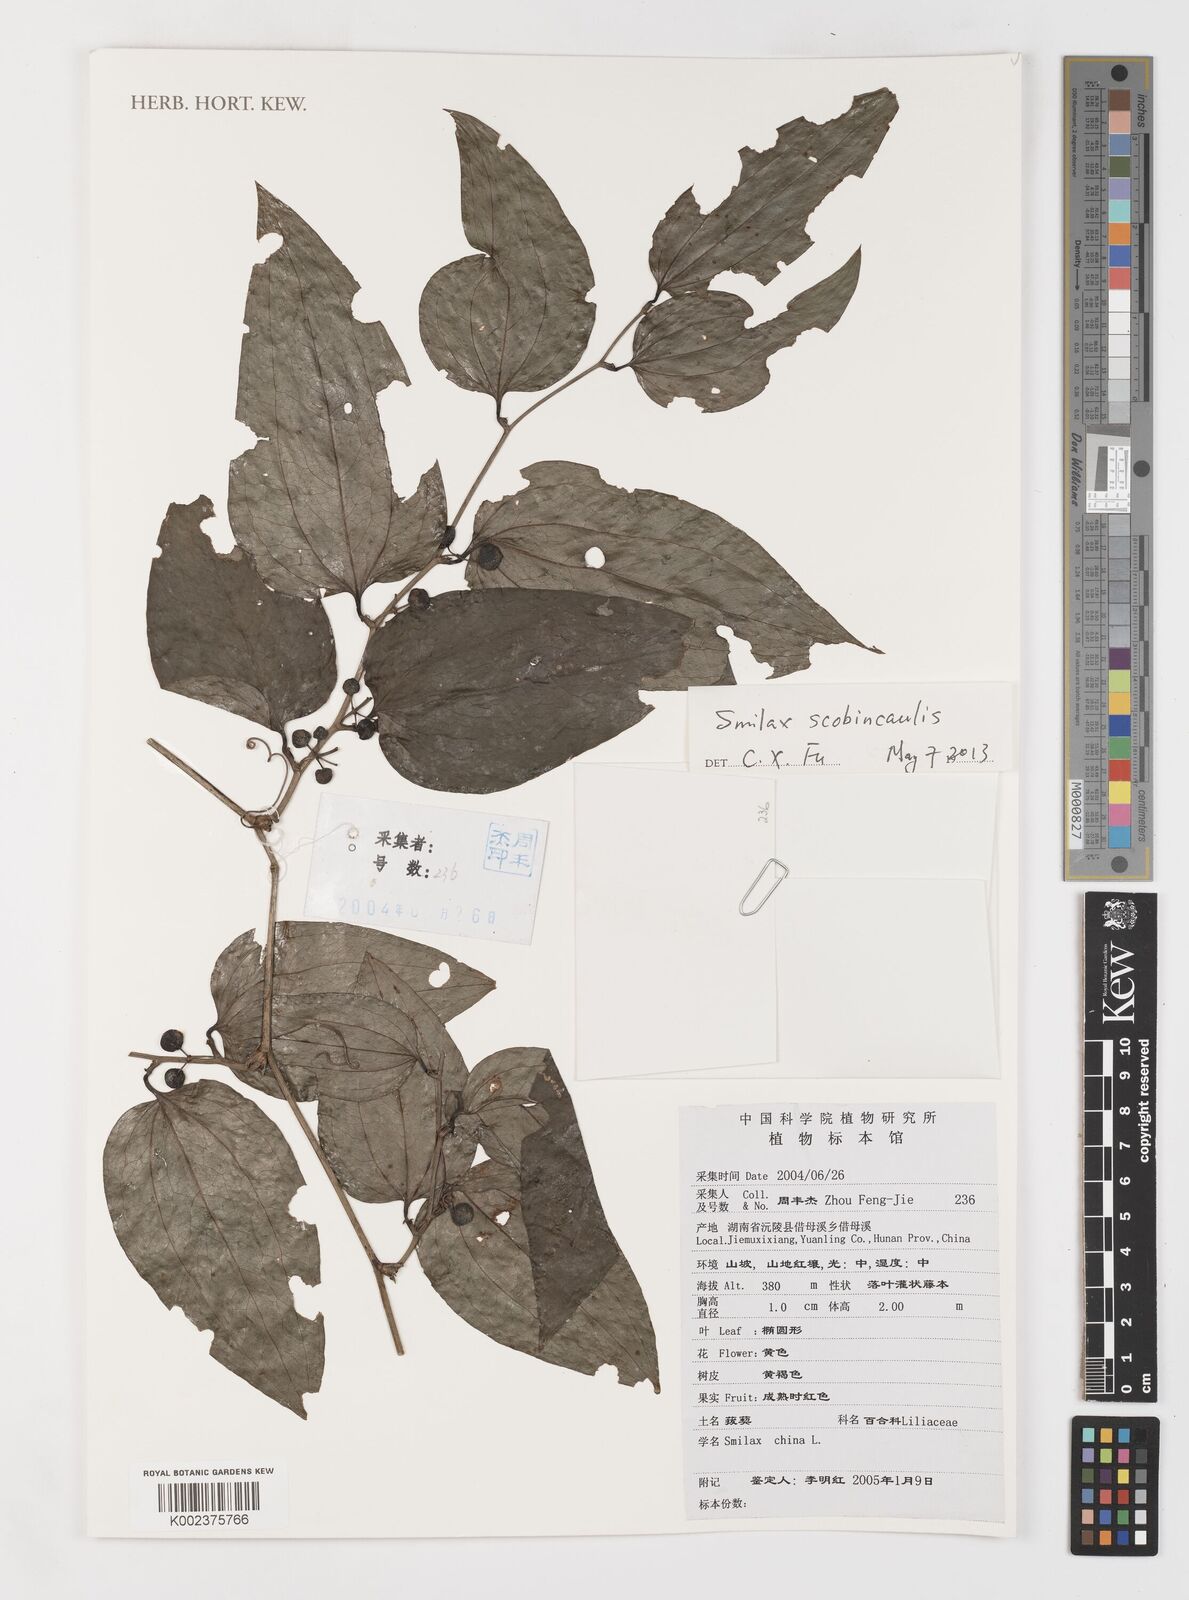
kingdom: Plantae
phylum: Tracheophyta
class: Liliopsida
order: Liliales
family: Smilacaceae
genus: Smilax
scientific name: Smilax china
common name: Chinaroot
